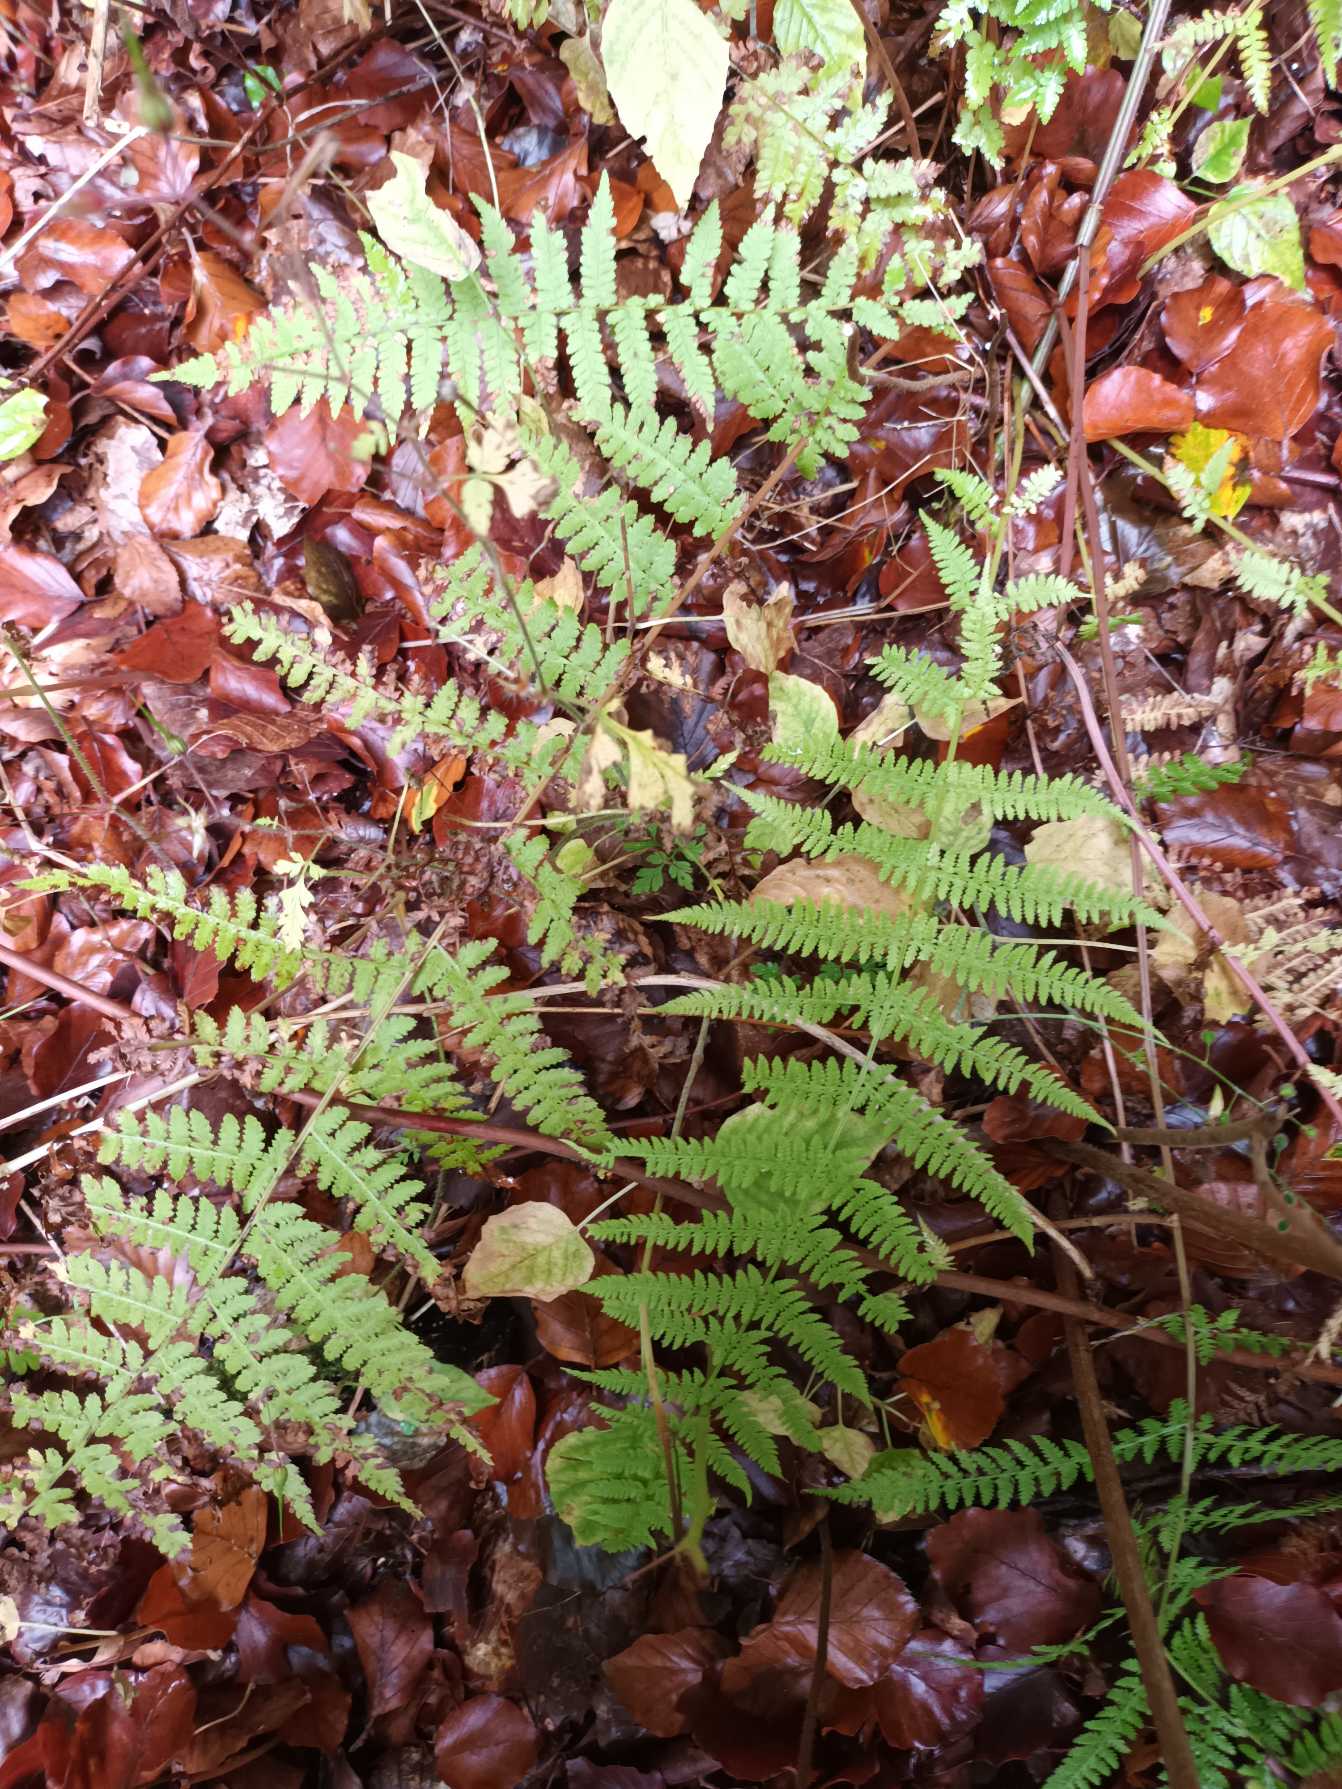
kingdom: Plantae
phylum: Tracheophyta
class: Polypodiopsida
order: Polypodiales
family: Athyriaceae
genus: Athyrium
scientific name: Athyrium filix-femina
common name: Fjerbregne
